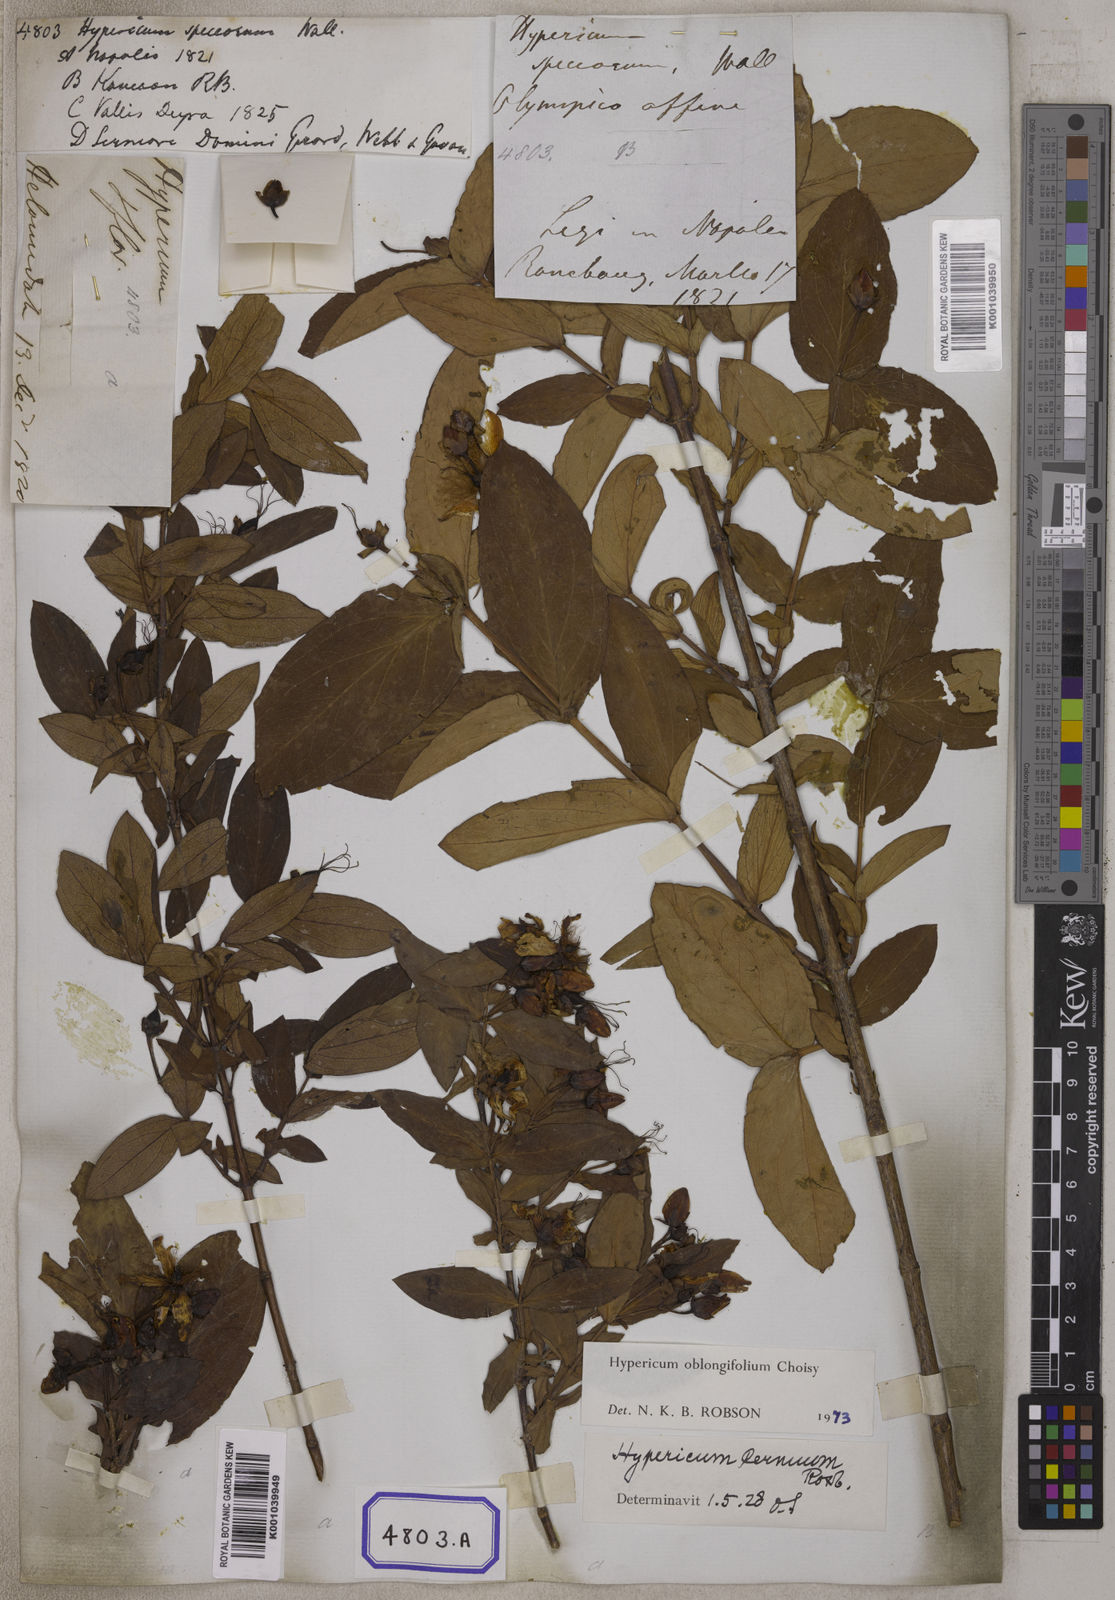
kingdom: Plantae
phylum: Tracheophyta
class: Magnoliopsida
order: Malpighiales
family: Hypericaceae
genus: Hypericum
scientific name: Hypericum oblongifolium
